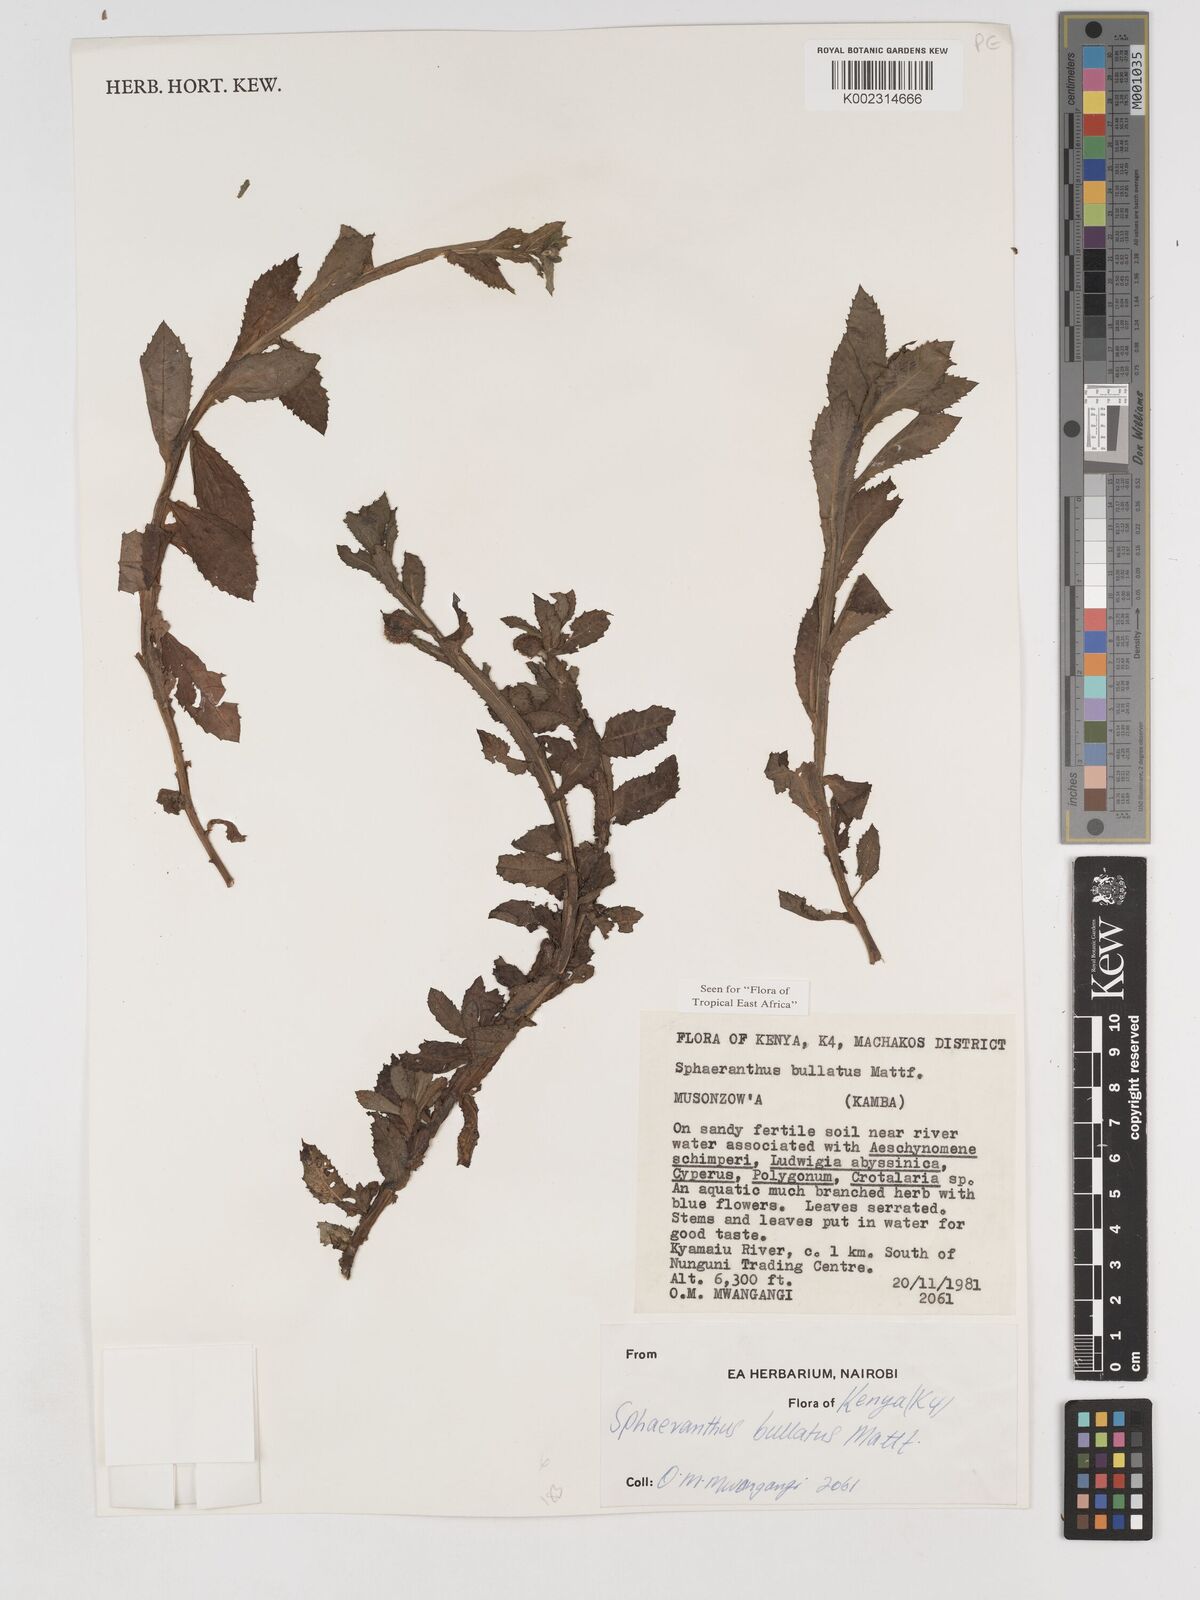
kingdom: Plantae
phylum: Tracheophyta
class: Magnoliopsida
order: Asterales
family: Asteraceae
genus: Sphaeranthus
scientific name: Sphaeranthus bullatus
